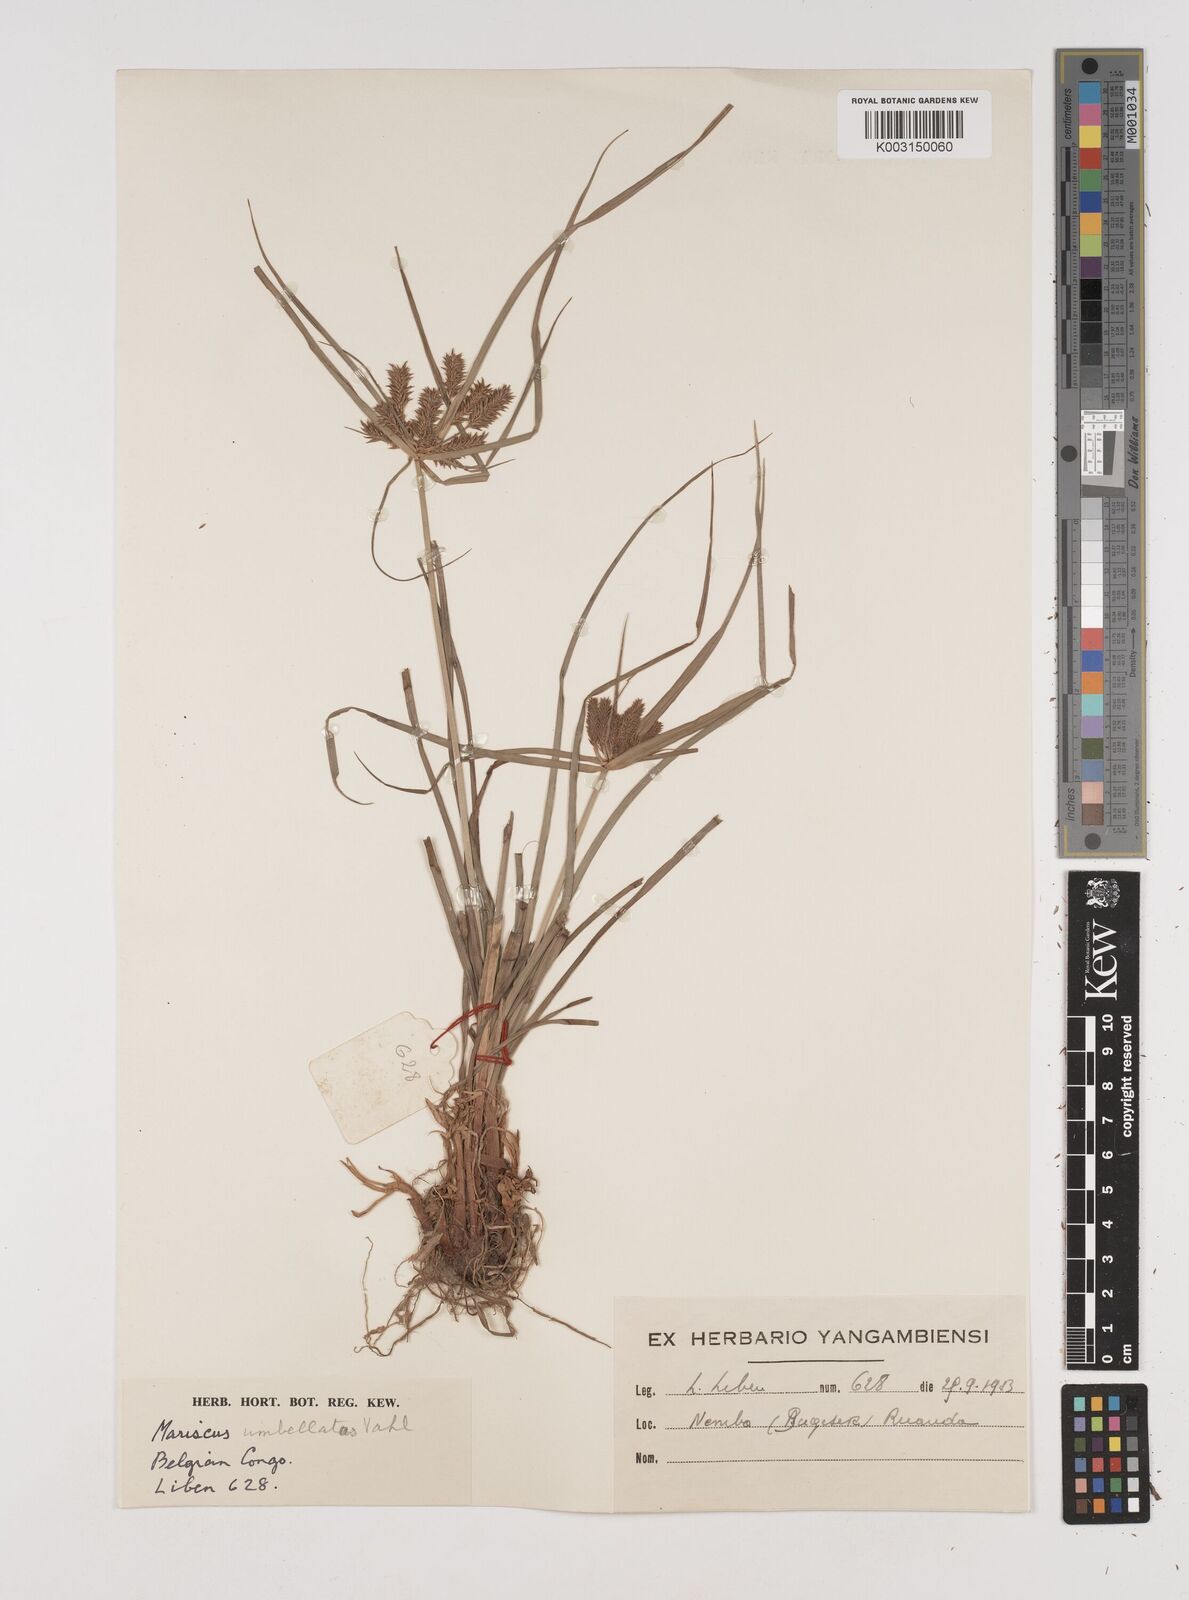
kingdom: Plantae
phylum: Tracheophyta
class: Liliopsida
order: Poales
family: Cyperaceae
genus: Cyperus
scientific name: Cyperus macrocarpus
